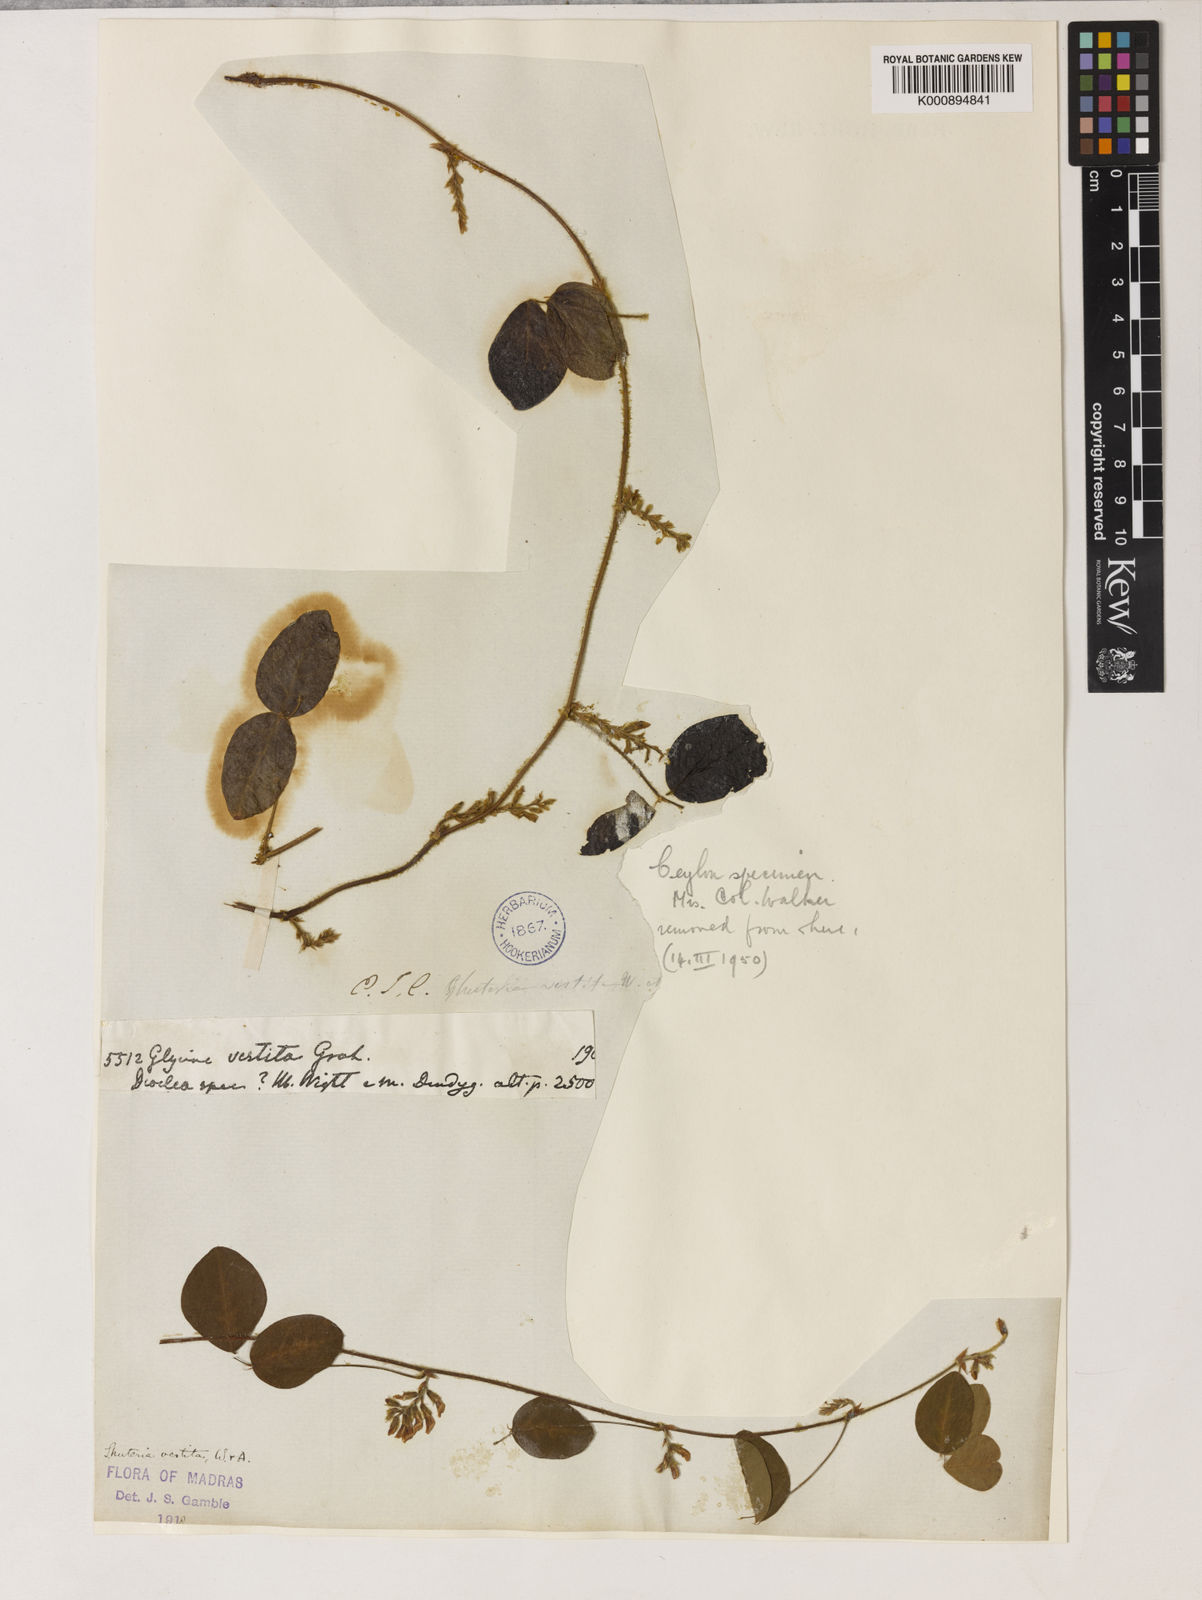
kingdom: Plantae
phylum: Tracheophyta
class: Magnoliopsida
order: Fabales
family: Fabaceae
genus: Shuteria
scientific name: Shuteria vestita
